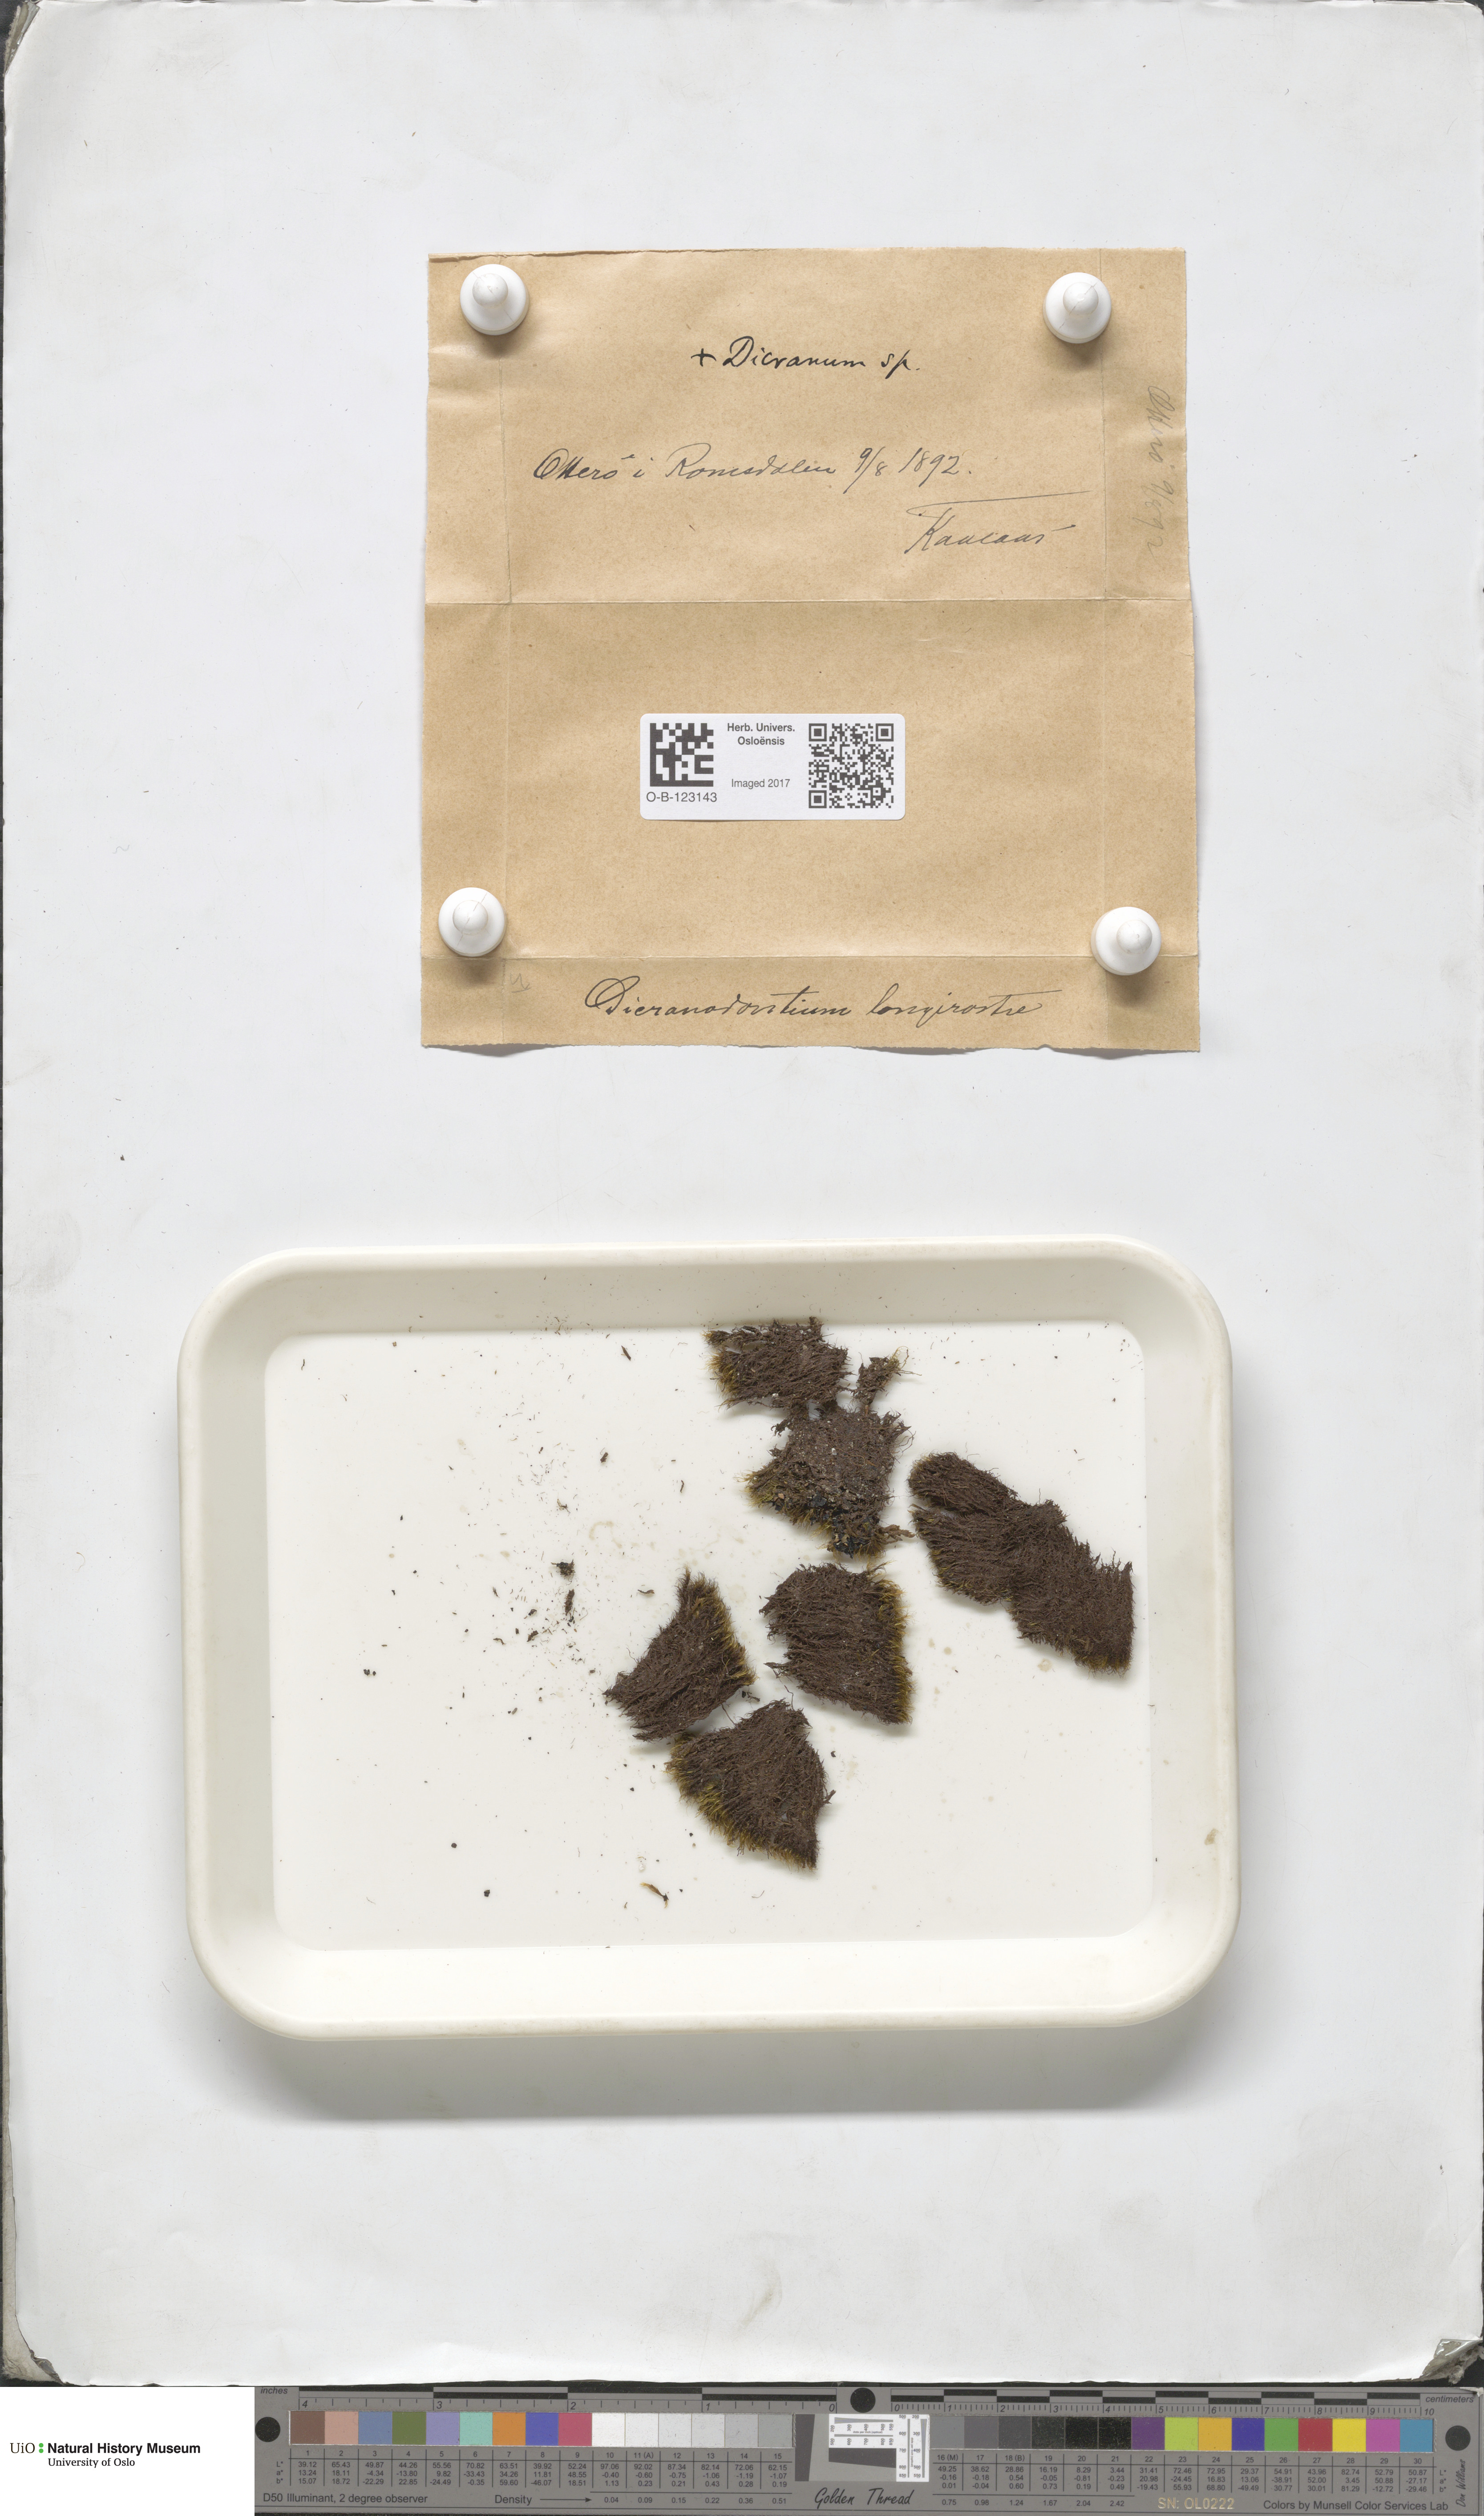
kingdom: Plantae
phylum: Bryophyta
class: Bryopsida
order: Dicranales
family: Leucobryaceae
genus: Dicranodontium
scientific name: Dicranodontium denudatum
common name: Beaked bow moss
